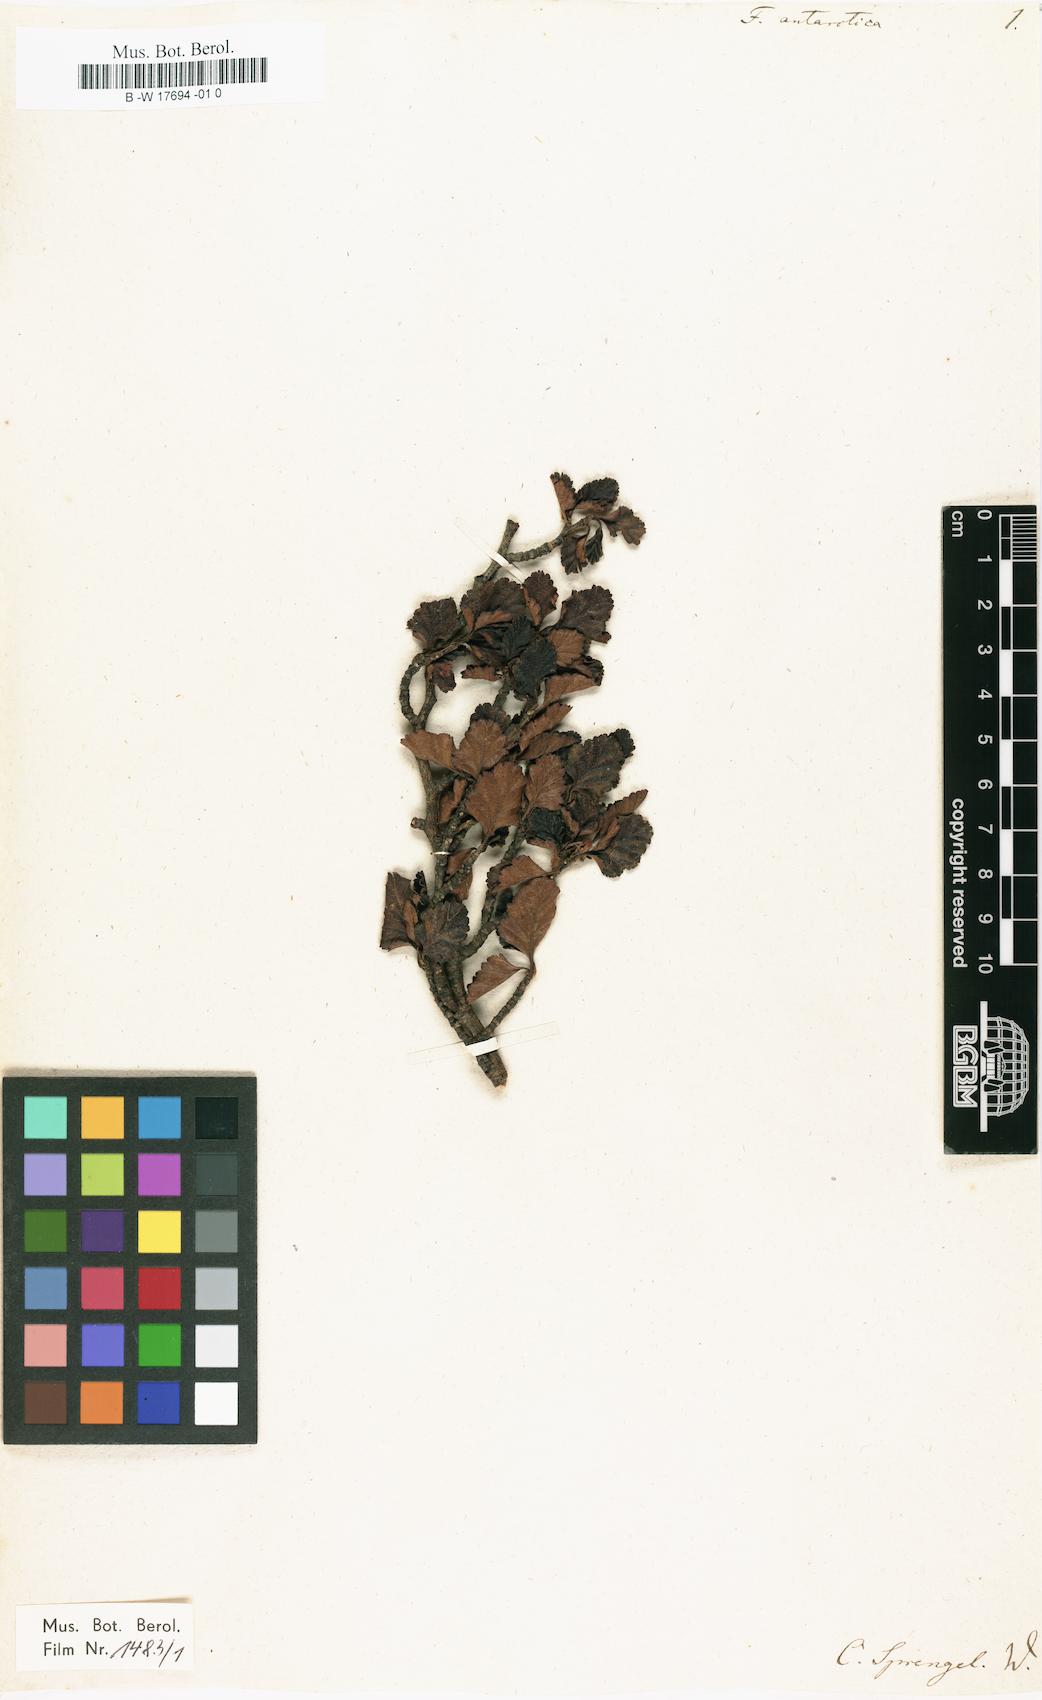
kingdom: Plantae
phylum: Tracheophyta
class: Magnoliopsida
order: Fagales
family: Nothofagaceae
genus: Nothofagus
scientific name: Nothofagus antarctica
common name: Antarctic beech
